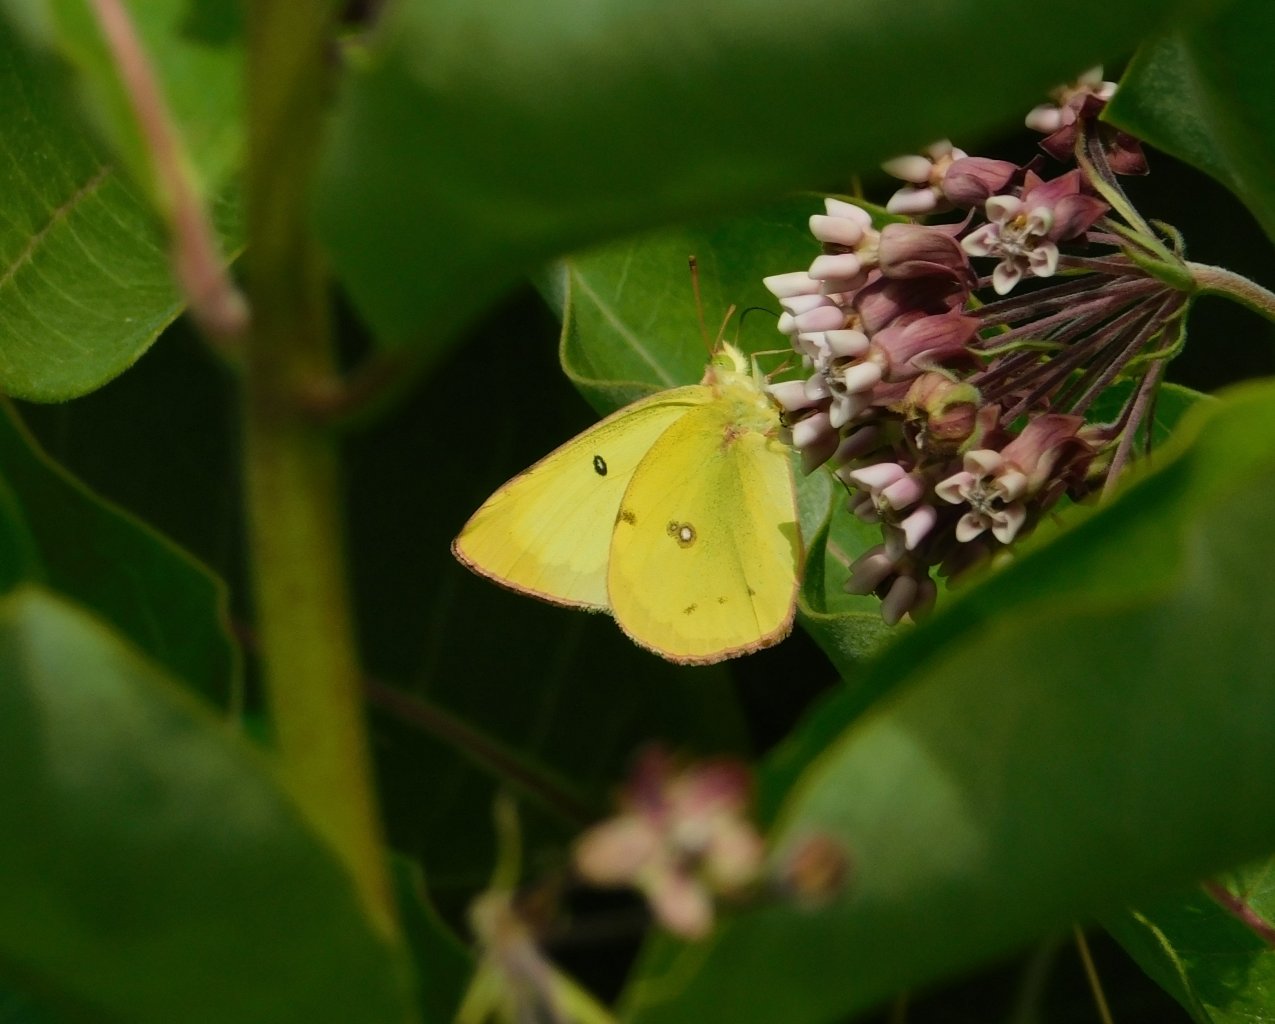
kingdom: Animalia
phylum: Arthropoda
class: Insecta
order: Lepidoptera
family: Pieridae
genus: Colias
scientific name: Colias philodice
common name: Clouded Sulphur
